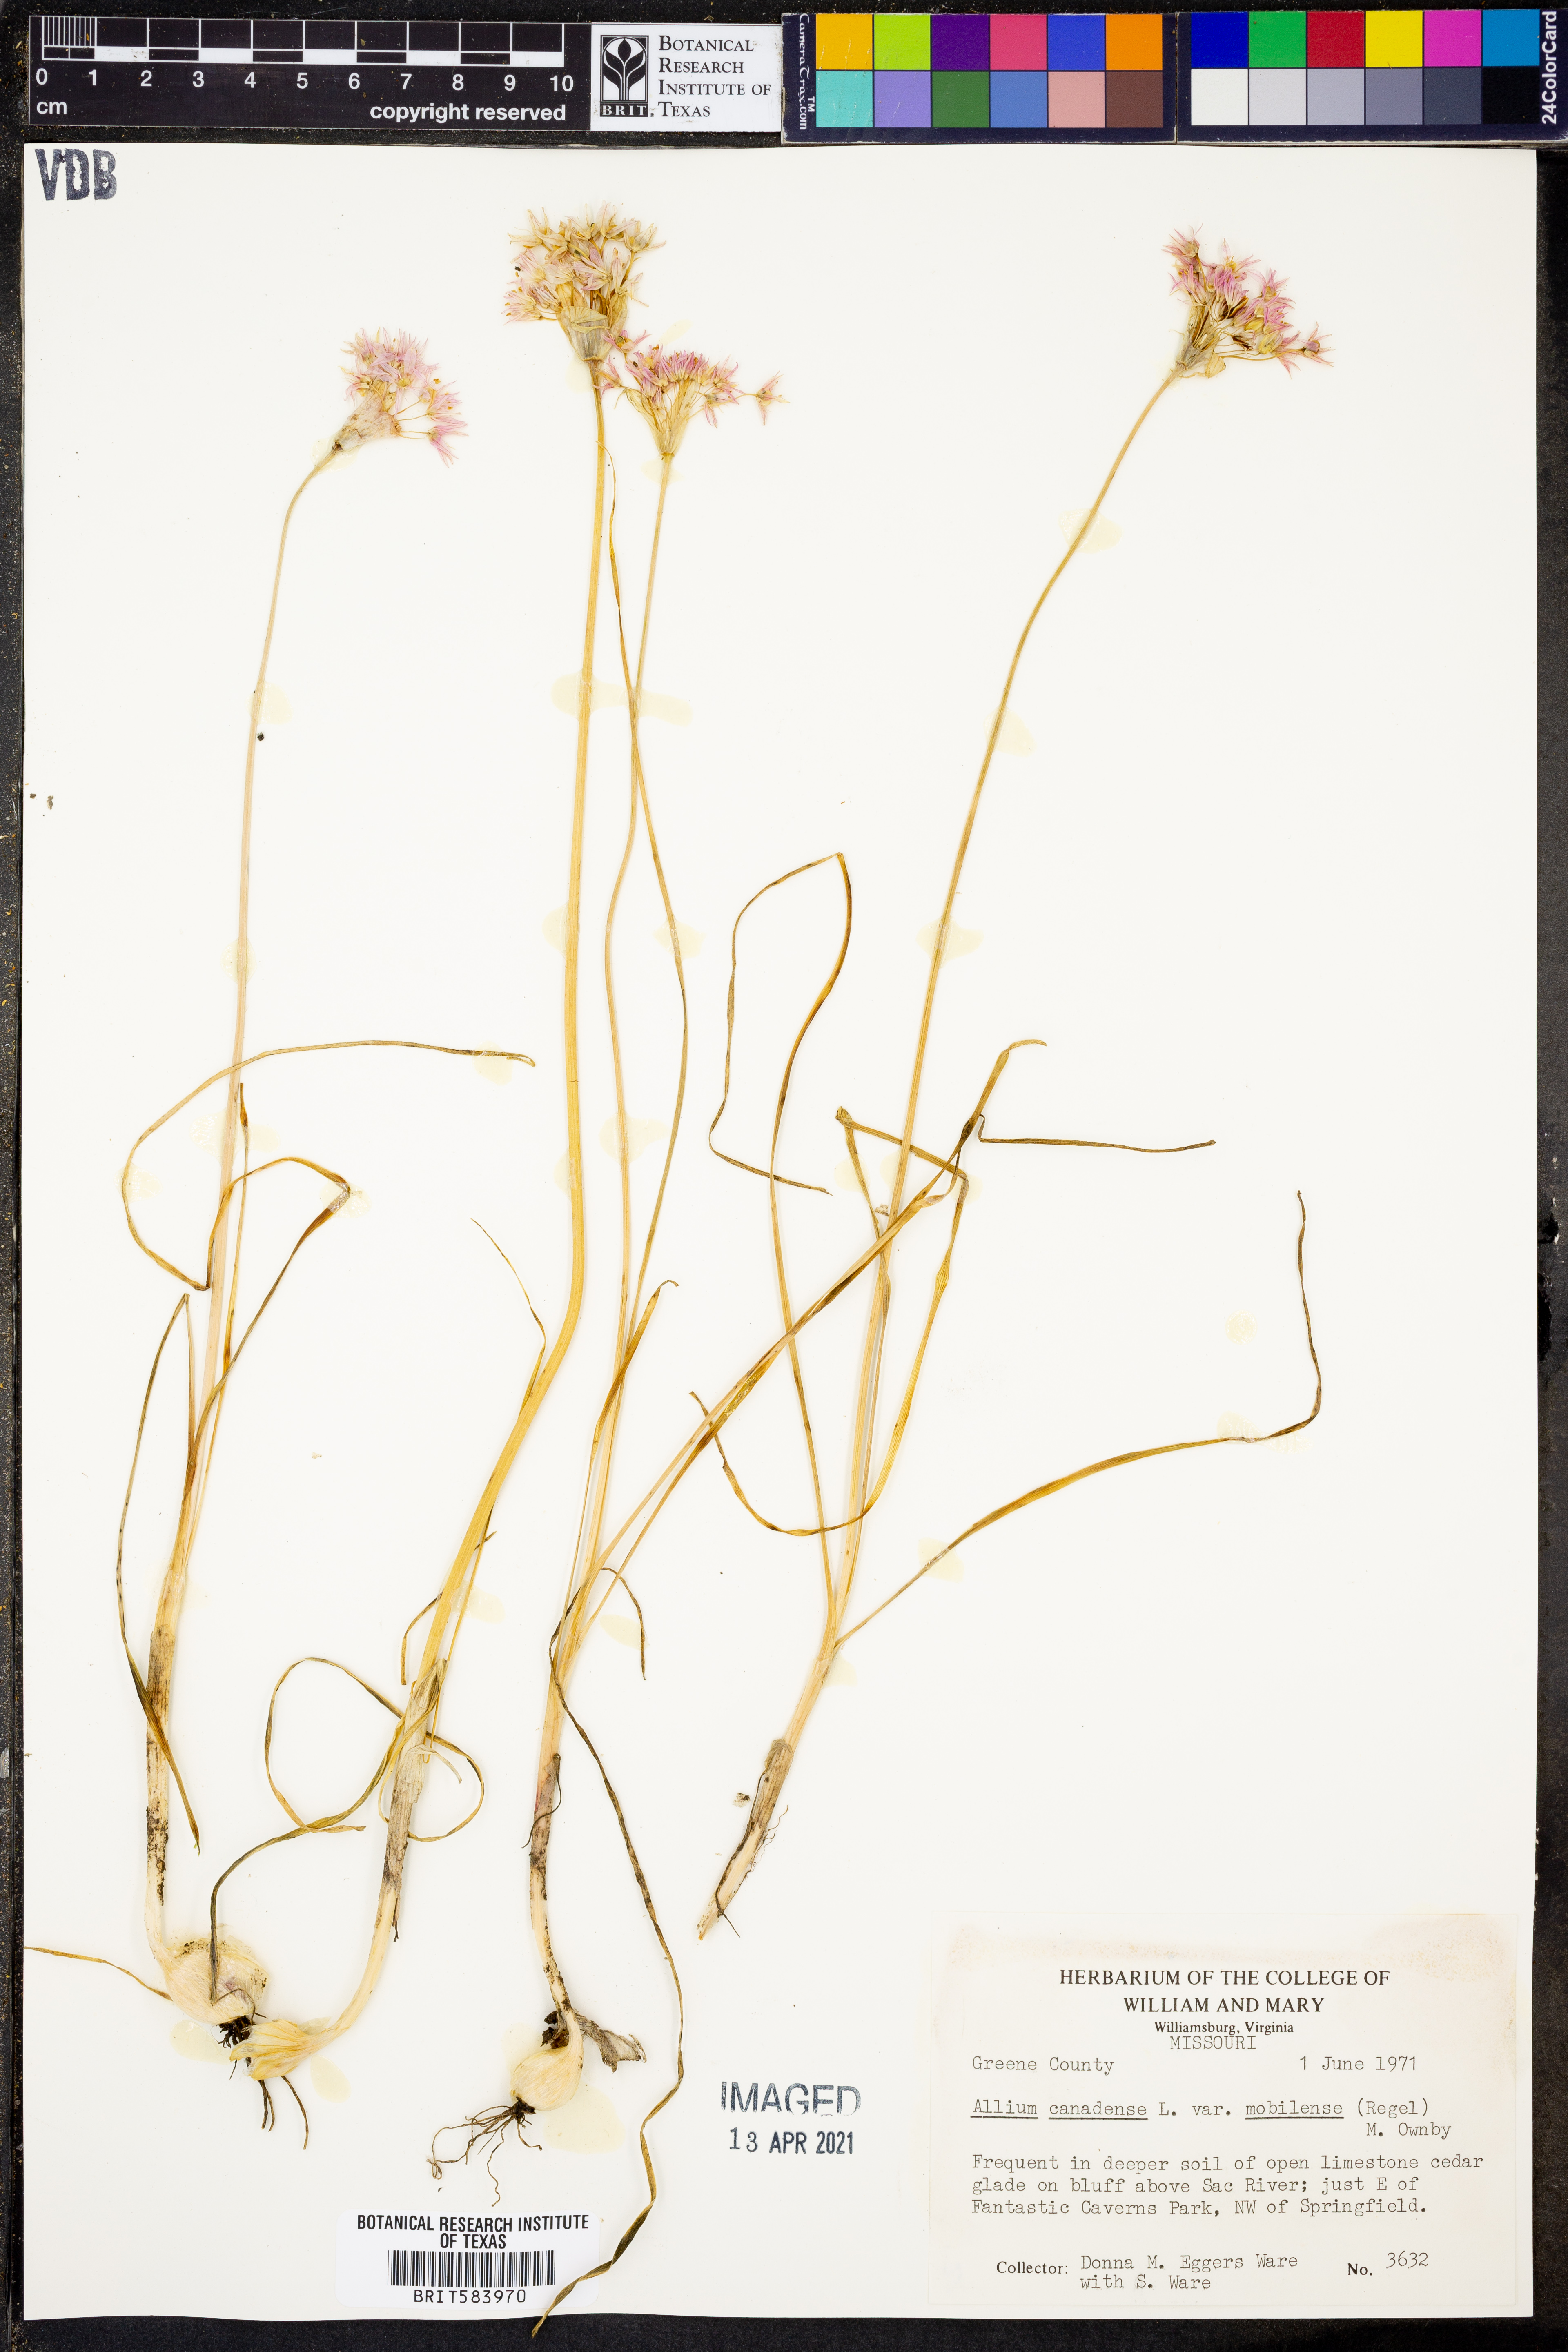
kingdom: Plantae
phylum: Tracheophyta
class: Liliopsida
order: Asparagales
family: Amaryllidaceae
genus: Allium
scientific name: Allium canadense
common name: Meadow garlic
